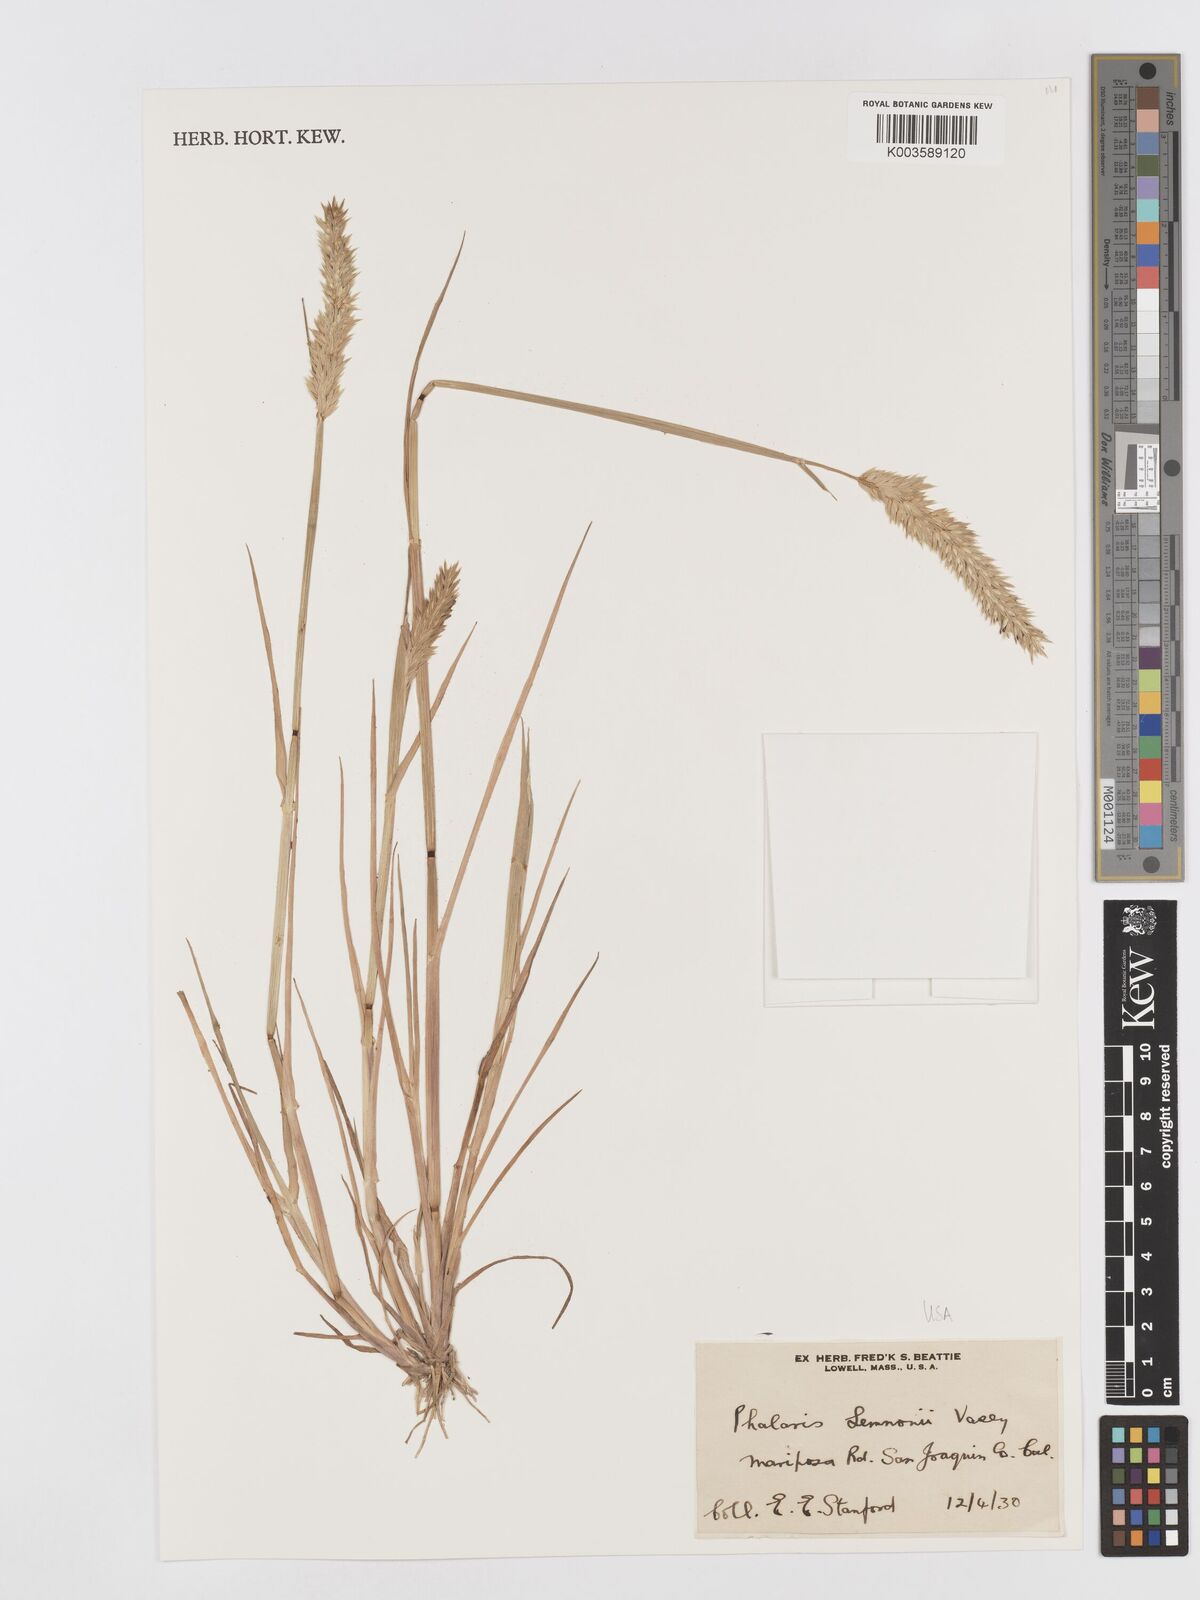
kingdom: Plantae
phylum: Tracheophyta
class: Liliopsida
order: Poales
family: Poaceae
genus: Phalaris
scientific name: Phalaris lemmonii
